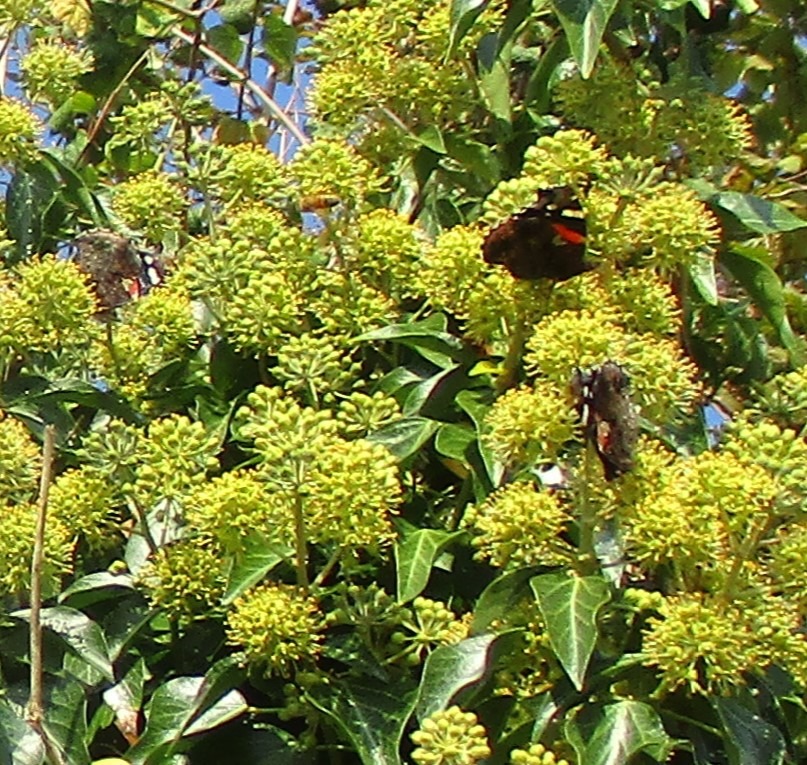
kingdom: Animalia
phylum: Arthropoda
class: Insecta
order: Lepidoptera
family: Nymphalidae
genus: Vanessa
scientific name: Vanessa atalanta
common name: Admiral
